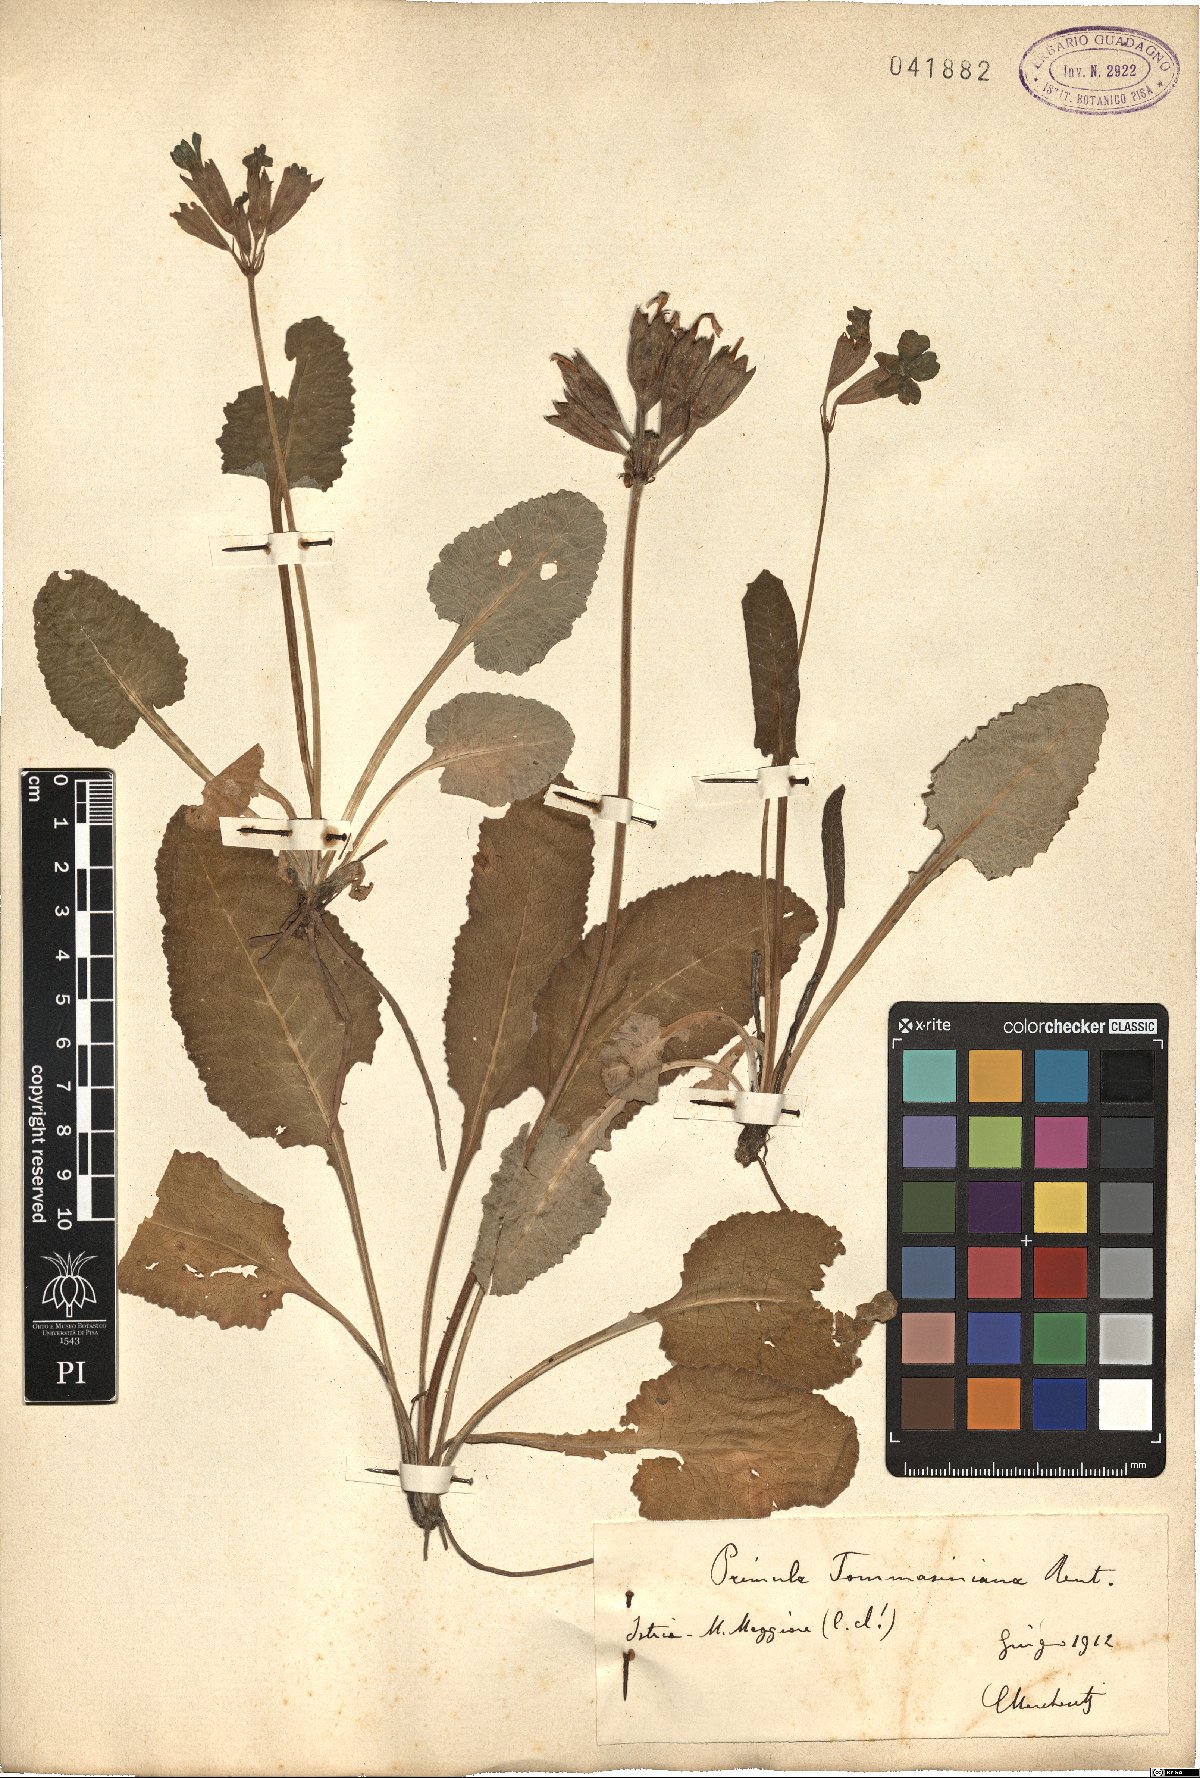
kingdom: Plantae
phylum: Tracheophyta
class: Magnoliopsida
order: Ericales
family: Primulaceae
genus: Primula
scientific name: Primula polyantha
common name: False oxlip
